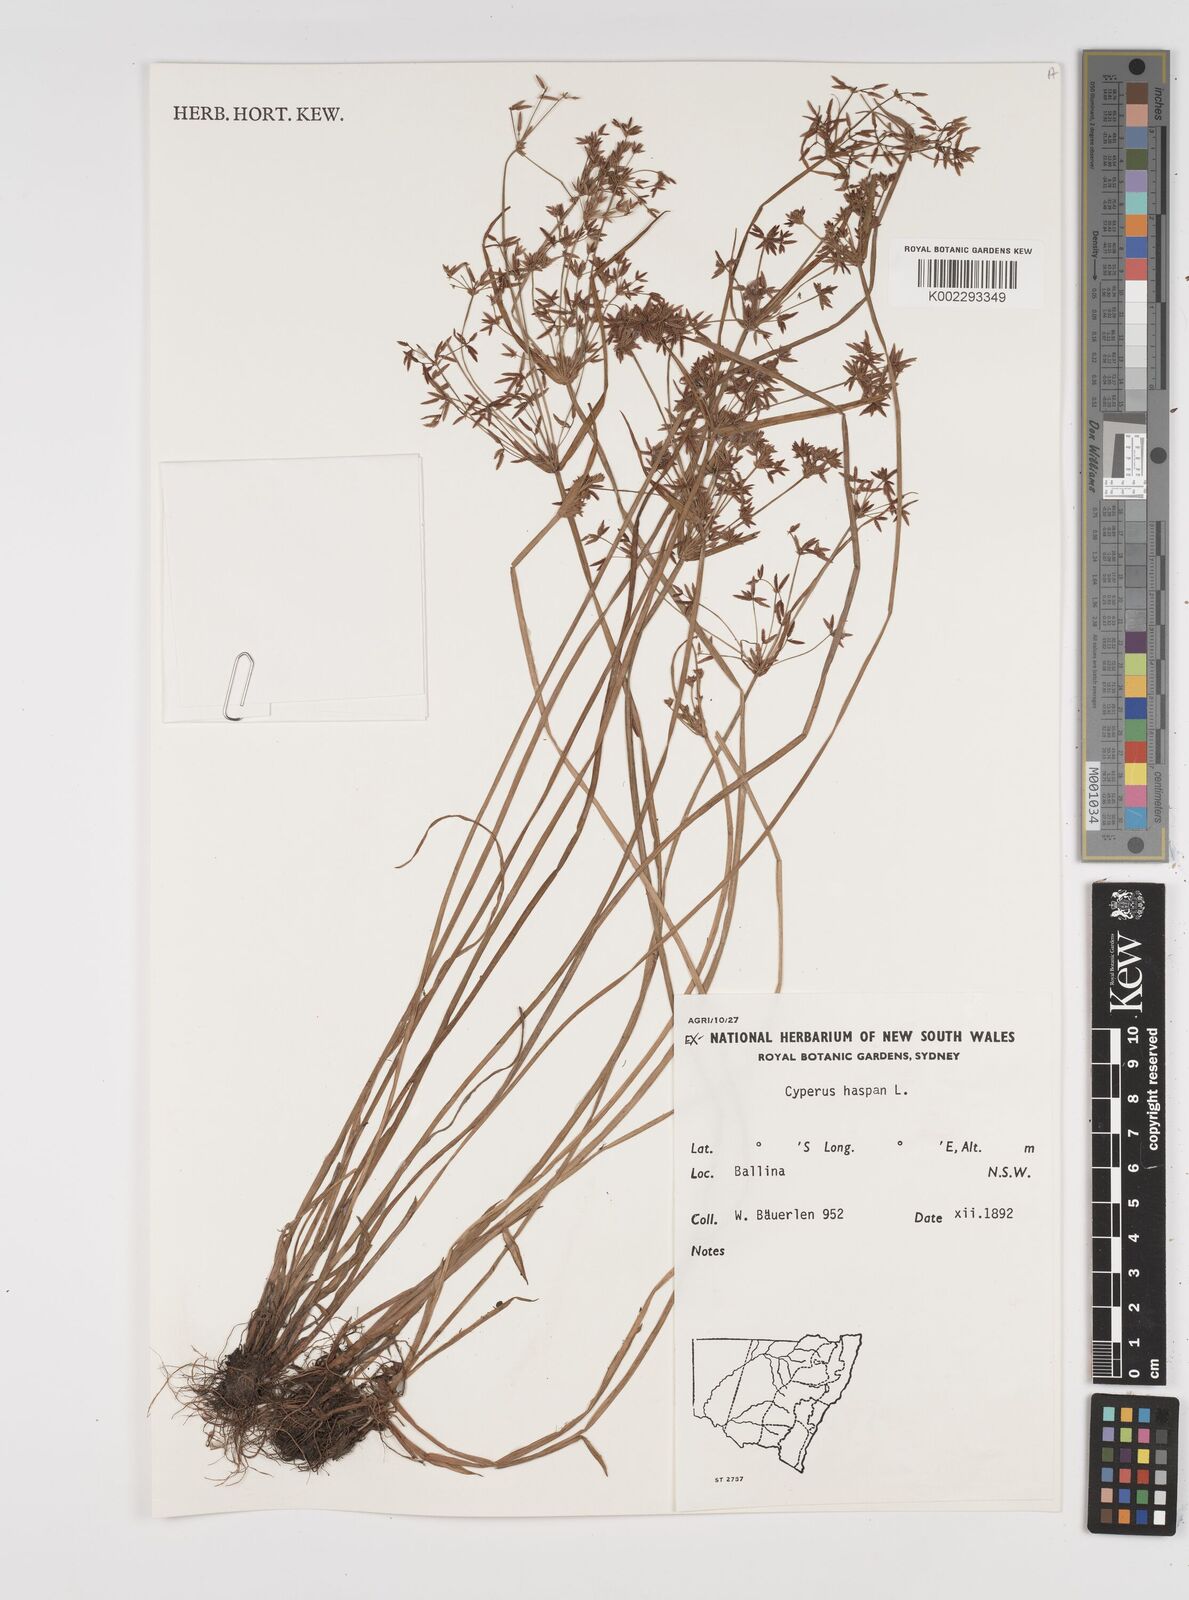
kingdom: Plantae
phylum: Tracheophyta
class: Liliopsida
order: Poales
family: Cyperaceae
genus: Cyperus
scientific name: Cyperus haspan
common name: Haspan flatsedge
